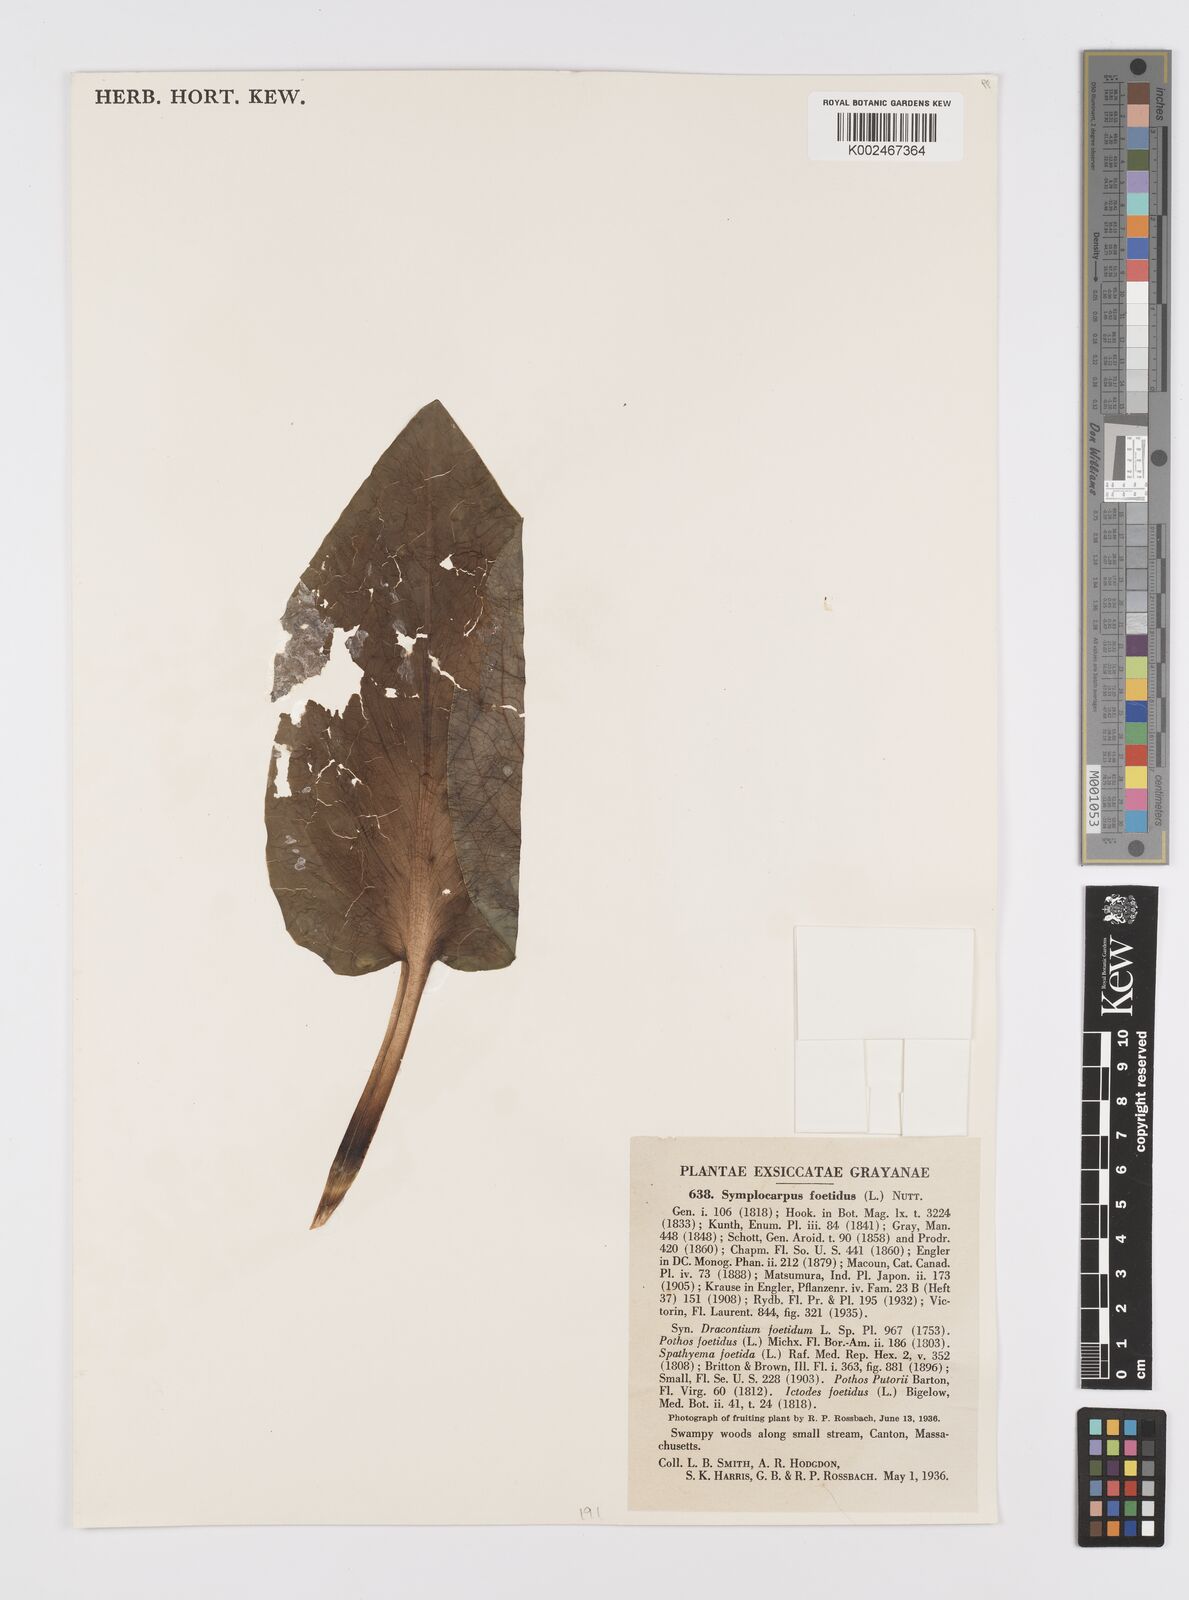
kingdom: Plantae
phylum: Tracheophyta
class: Liliopsida
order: Alismatales
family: Araceae
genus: Symplocarpus
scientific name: Symplocarpus foetidus
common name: Eastern skunk cabbage
